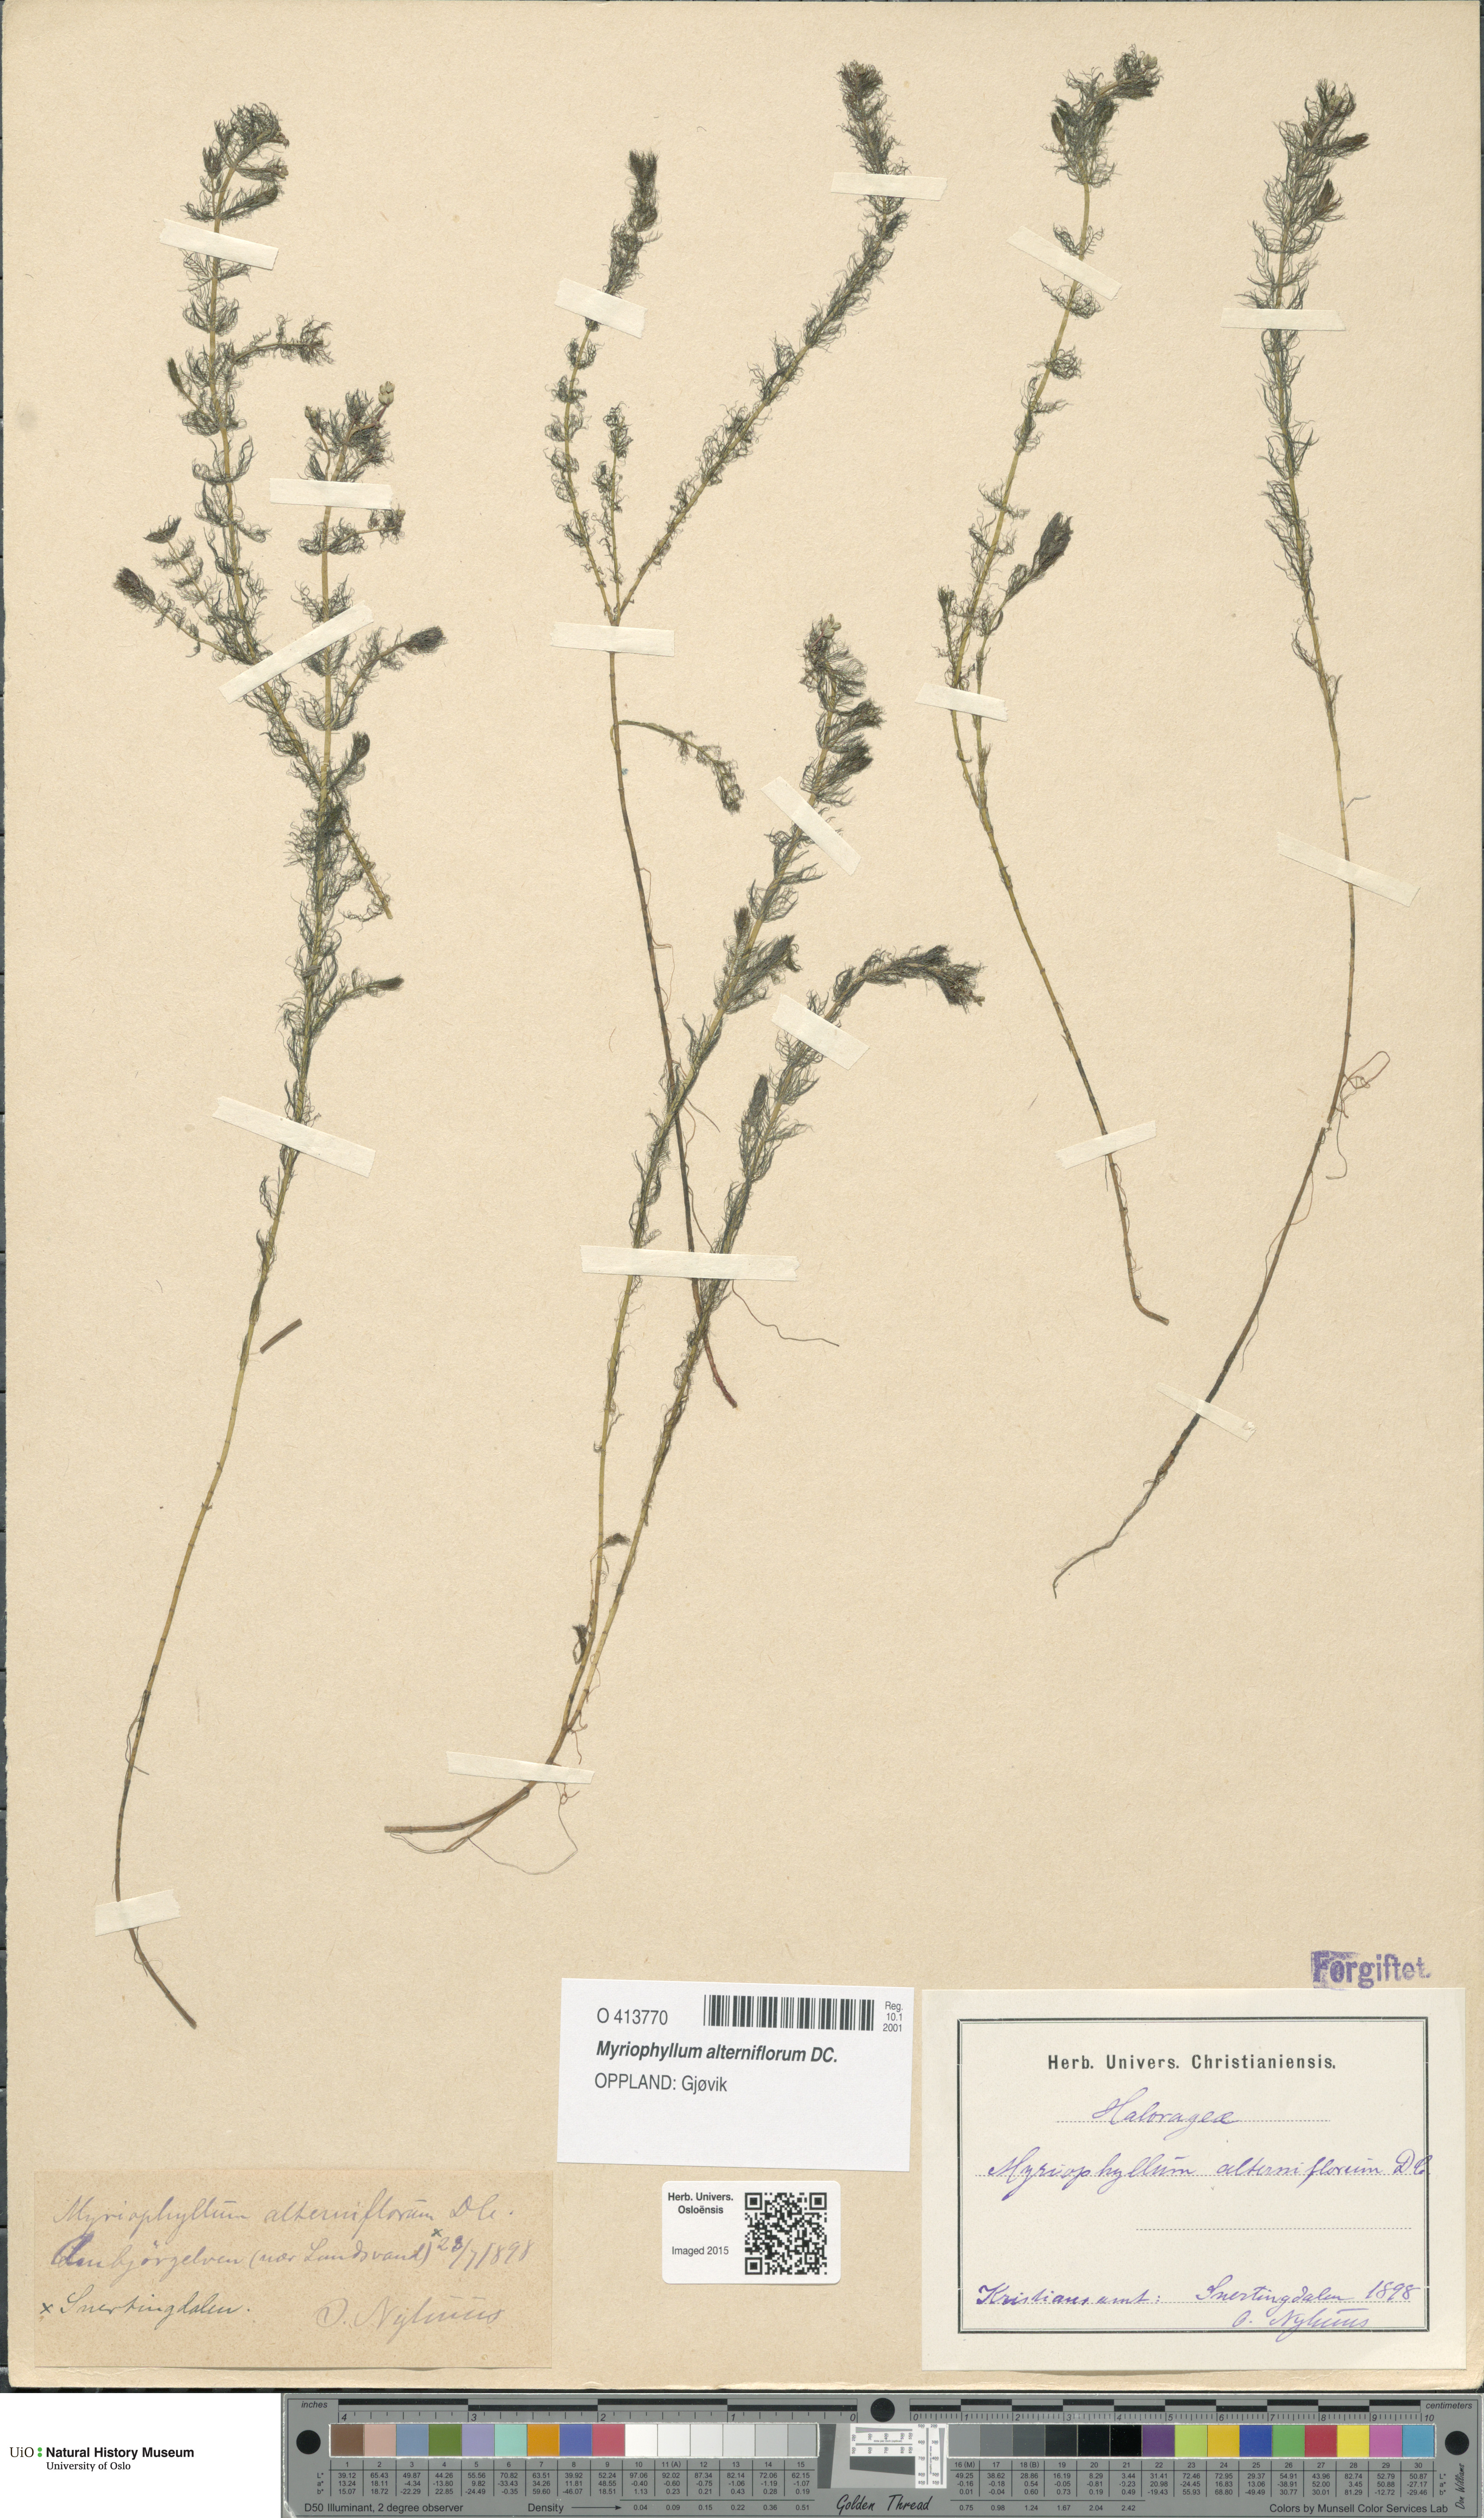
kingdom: Plantae
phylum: Tracheophyta
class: Magnoliopsida
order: Saxifragales
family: Haloragaceae
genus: Myriophyllum
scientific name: Myriophyllum alterniflorum
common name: Alternate water-milfoil
